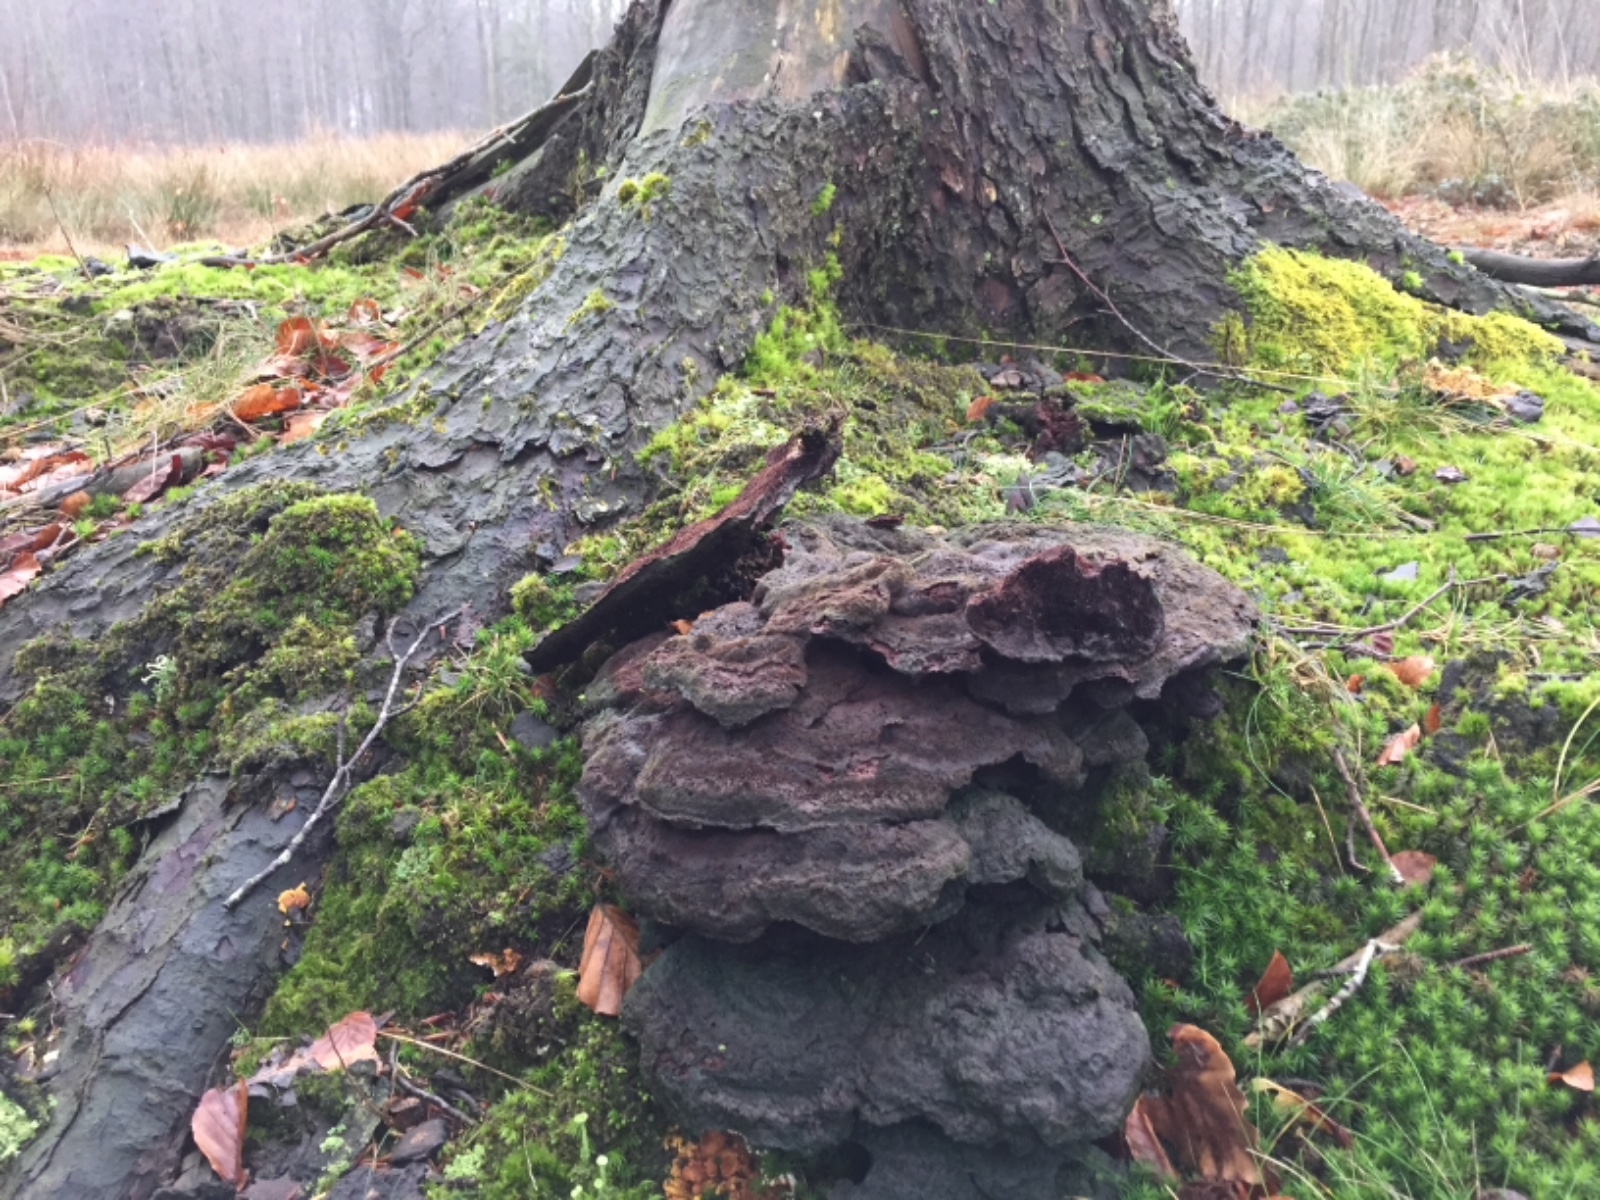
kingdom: Fungi
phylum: Basidiomycota
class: Agaricomycetes
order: Polyporales
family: Laetiporaceae
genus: Phaeolus
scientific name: Phaeolus schweinitzii
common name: brunporesvamp
